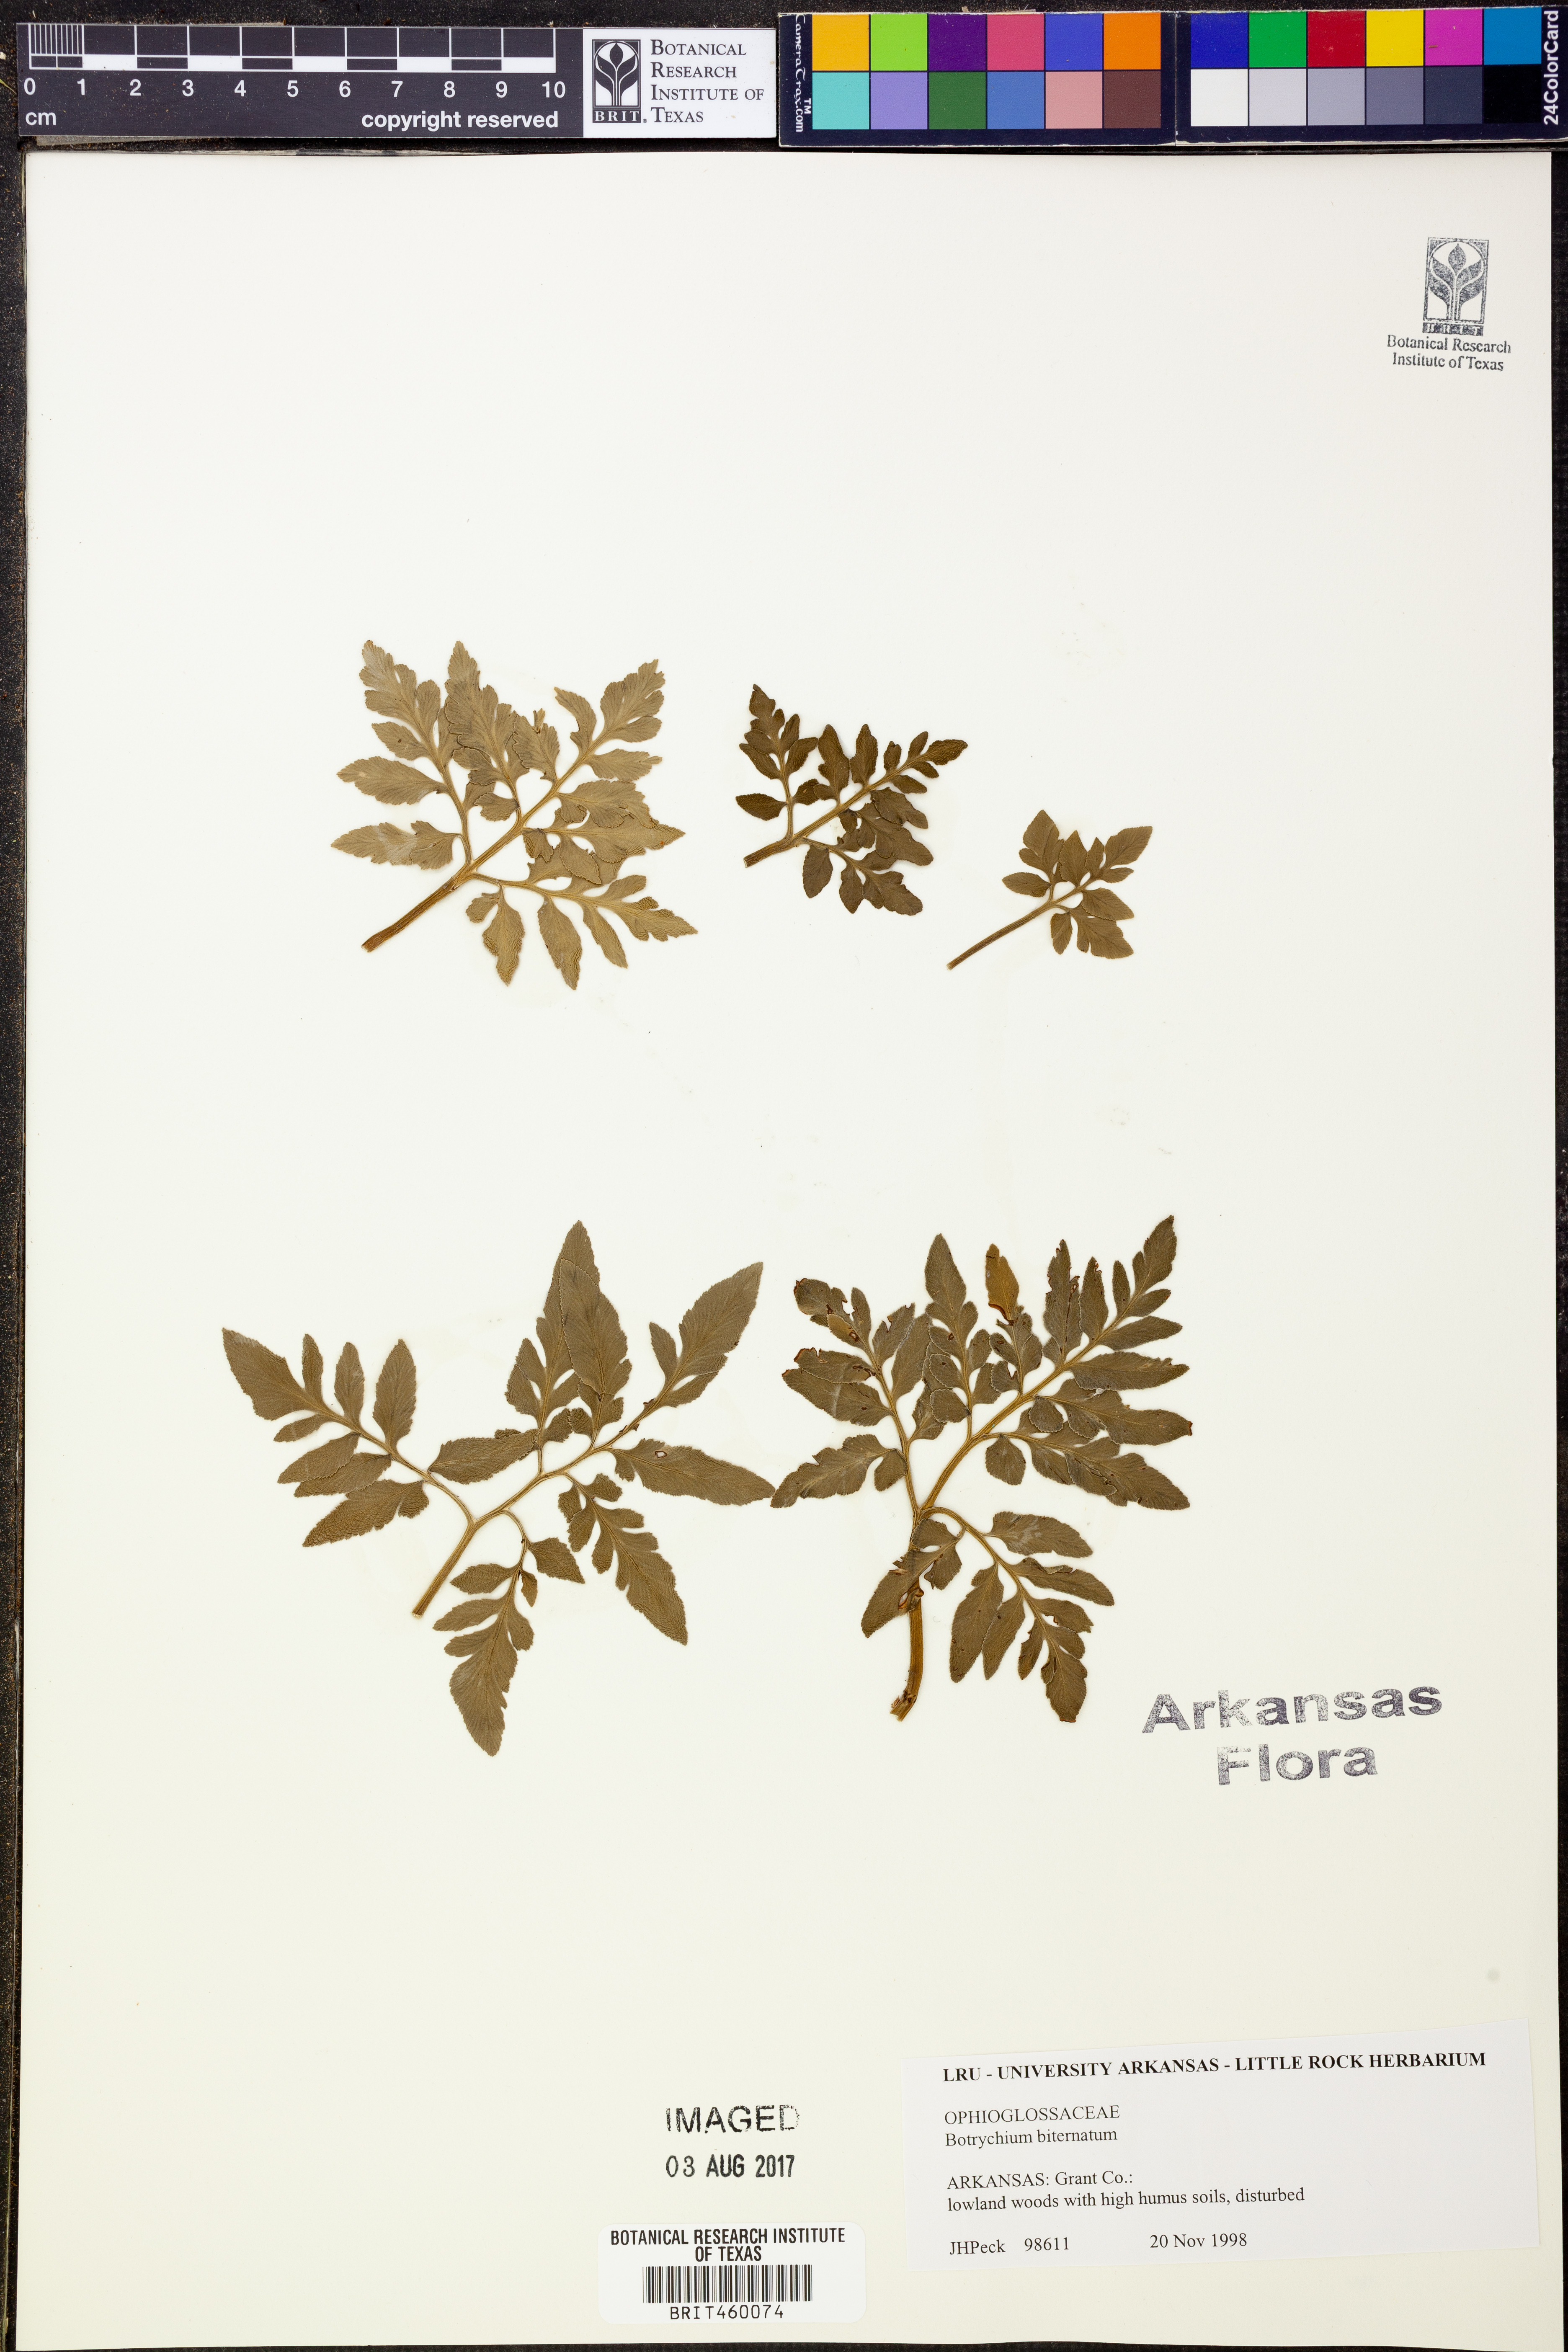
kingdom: Plantae
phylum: Tracheophyta
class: Polypodiopsida
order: Ophioglossales
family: Ophioglossaceae
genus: Sceptridium
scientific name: Sceptridium biternatum
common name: Sparse-lobed grapefern
